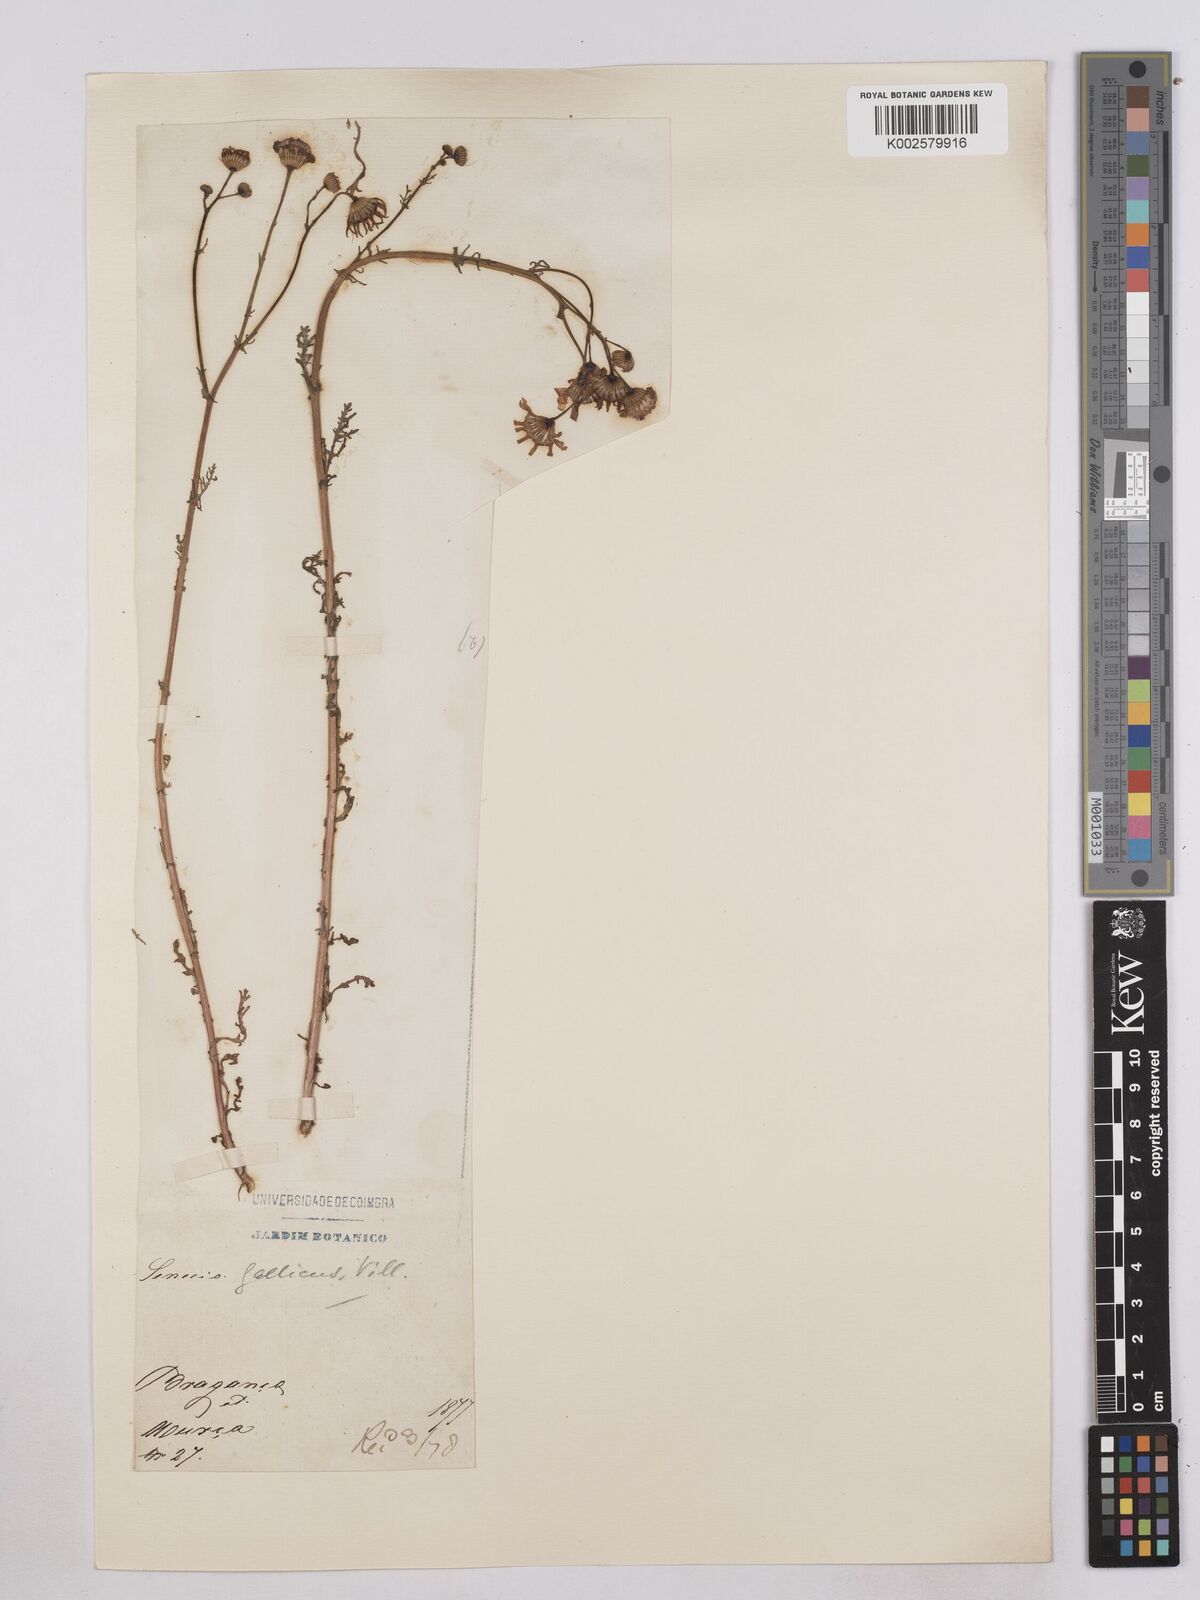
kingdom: Plantae
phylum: Tracheophyta
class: Magnoliopsida
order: Asterales
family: Asteraceae
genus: Senecio
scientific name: Senecio gallicus
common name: French groundsel
